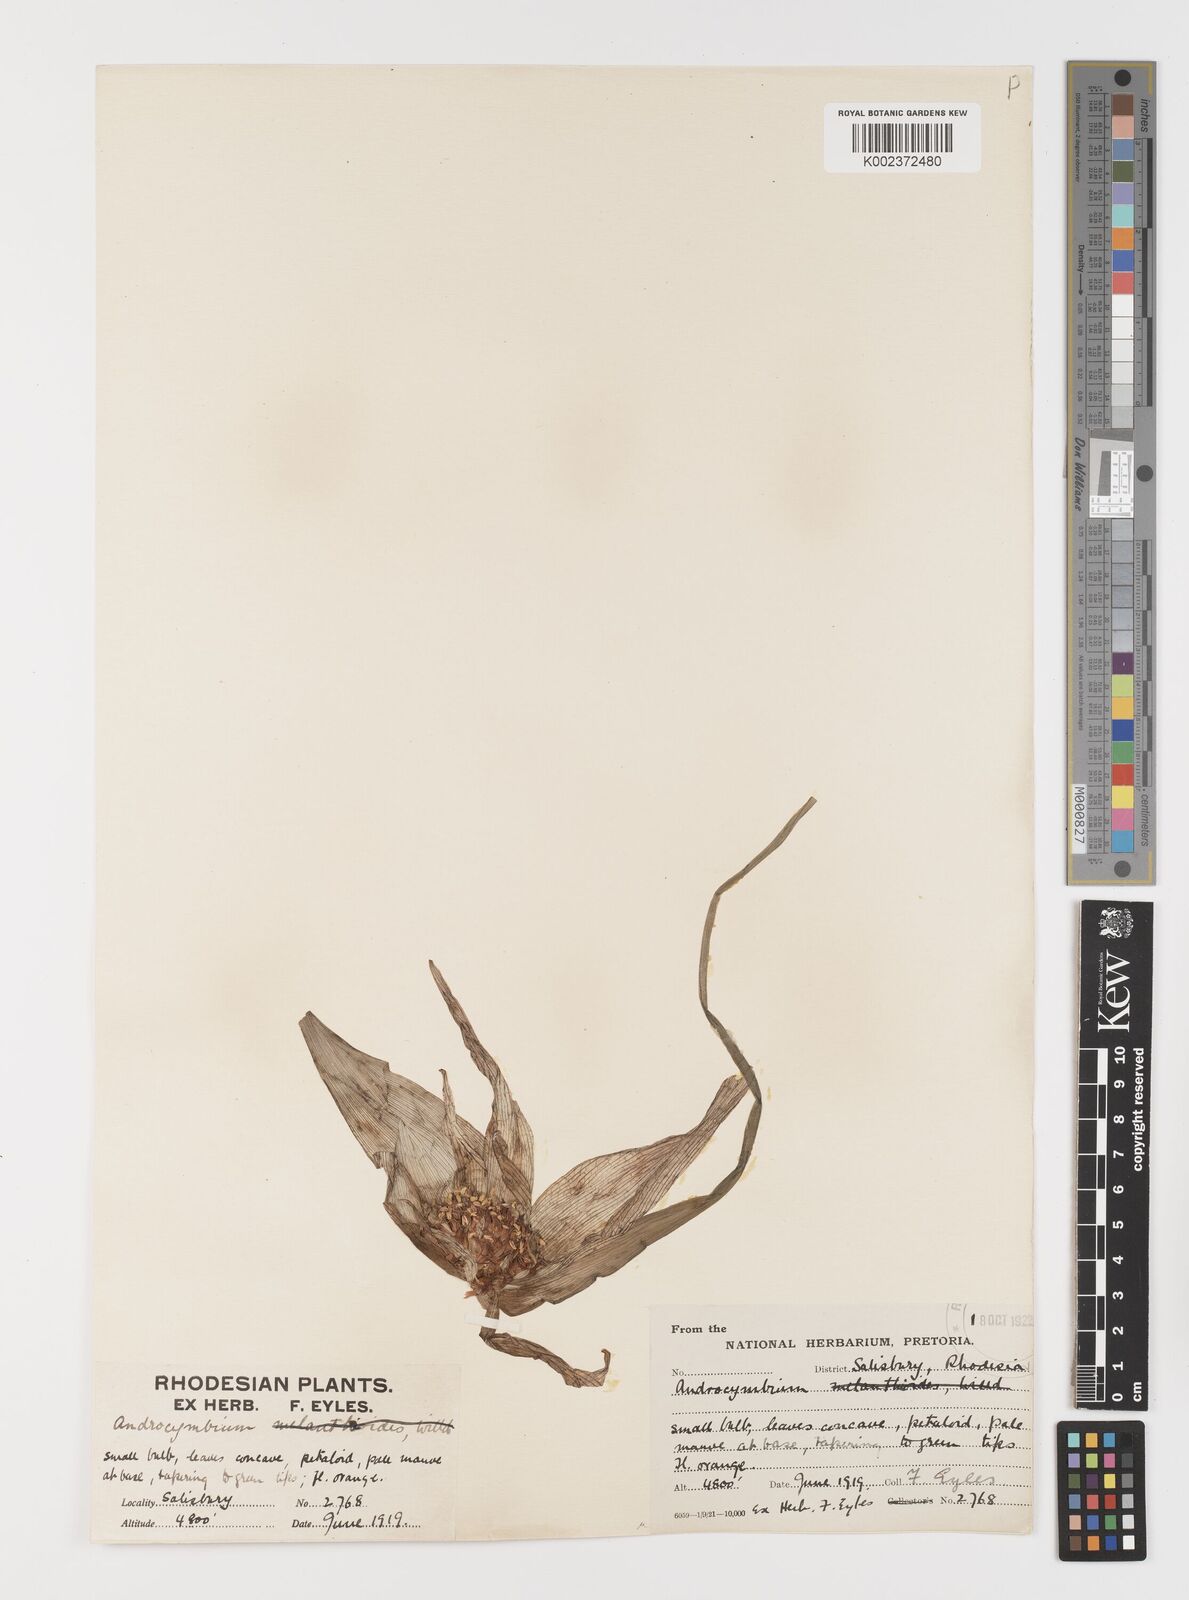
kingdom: Plantae
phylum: Tracheophyta
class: Liliopsida
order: Liliales
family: Colchicaceae
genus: Colchicum
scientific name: Colchicum melanthioides
